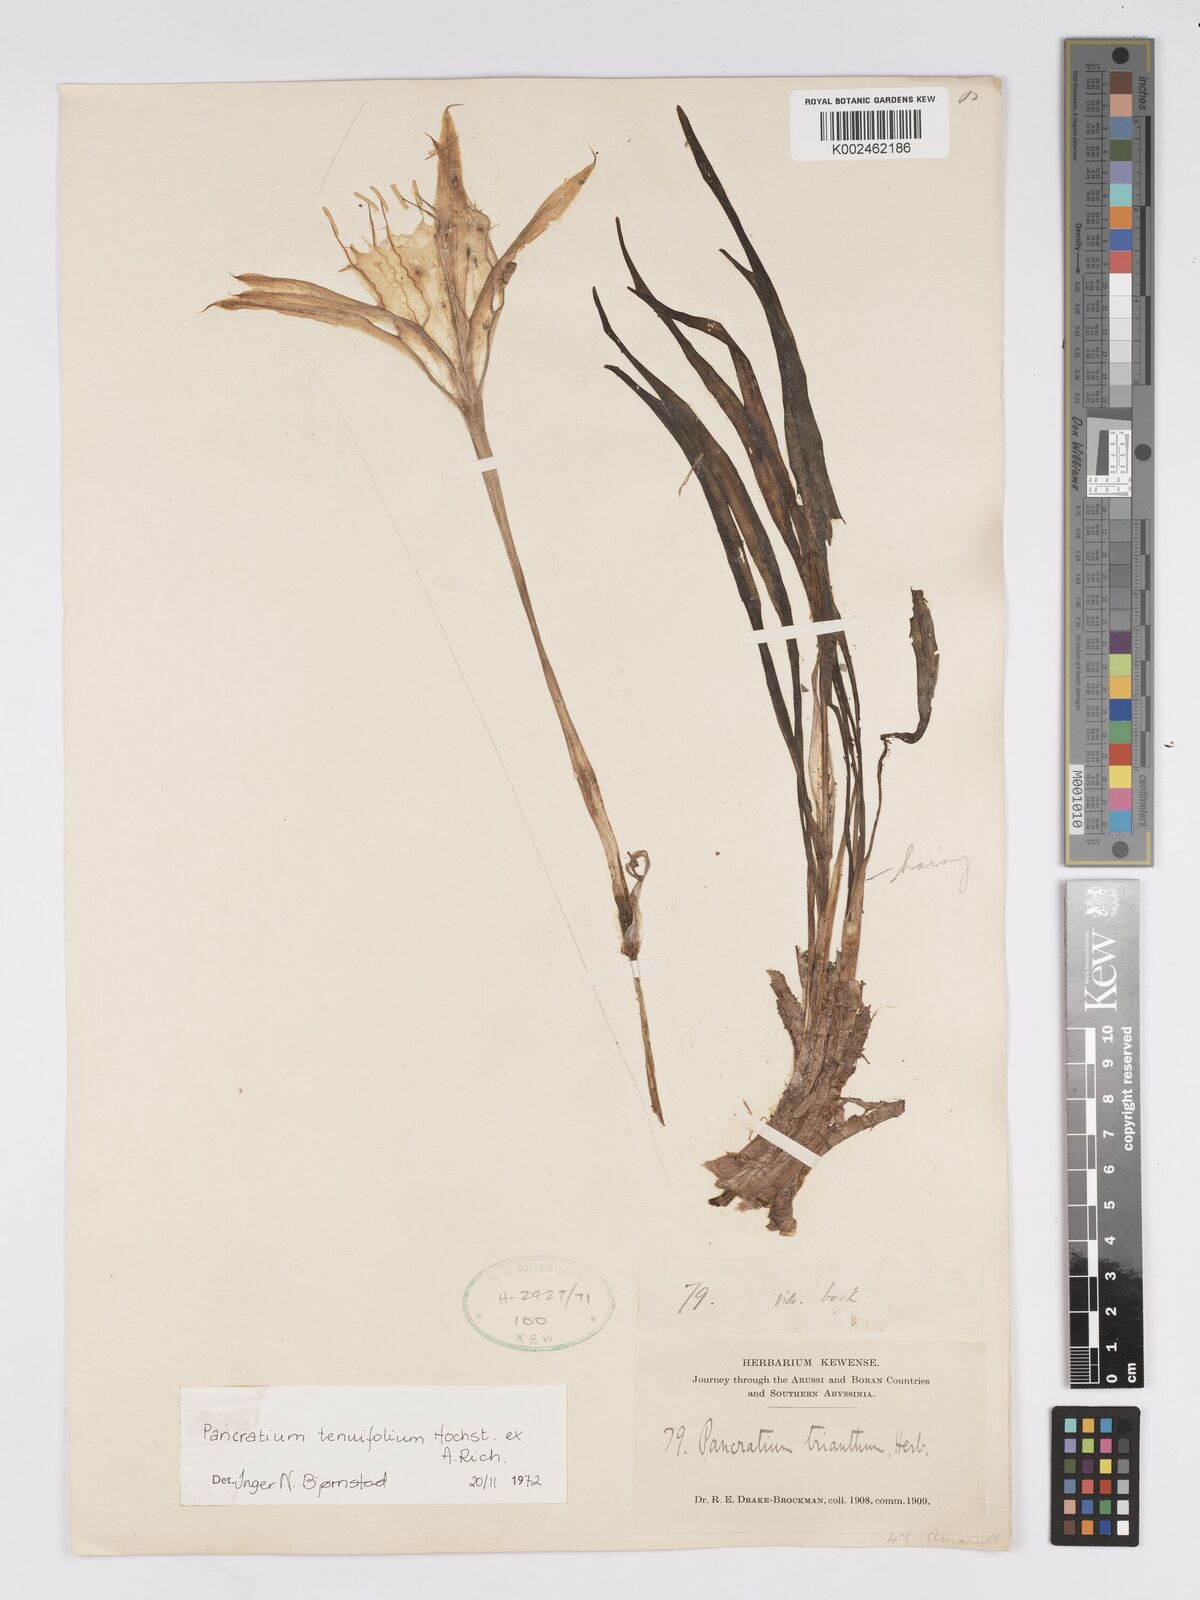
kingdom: Plantae
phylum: Tracheophyta
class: Liliopsida
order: Asparagales
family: Amaryllidaceae
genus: Pancratium
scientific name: Pancratium tenuifolium
